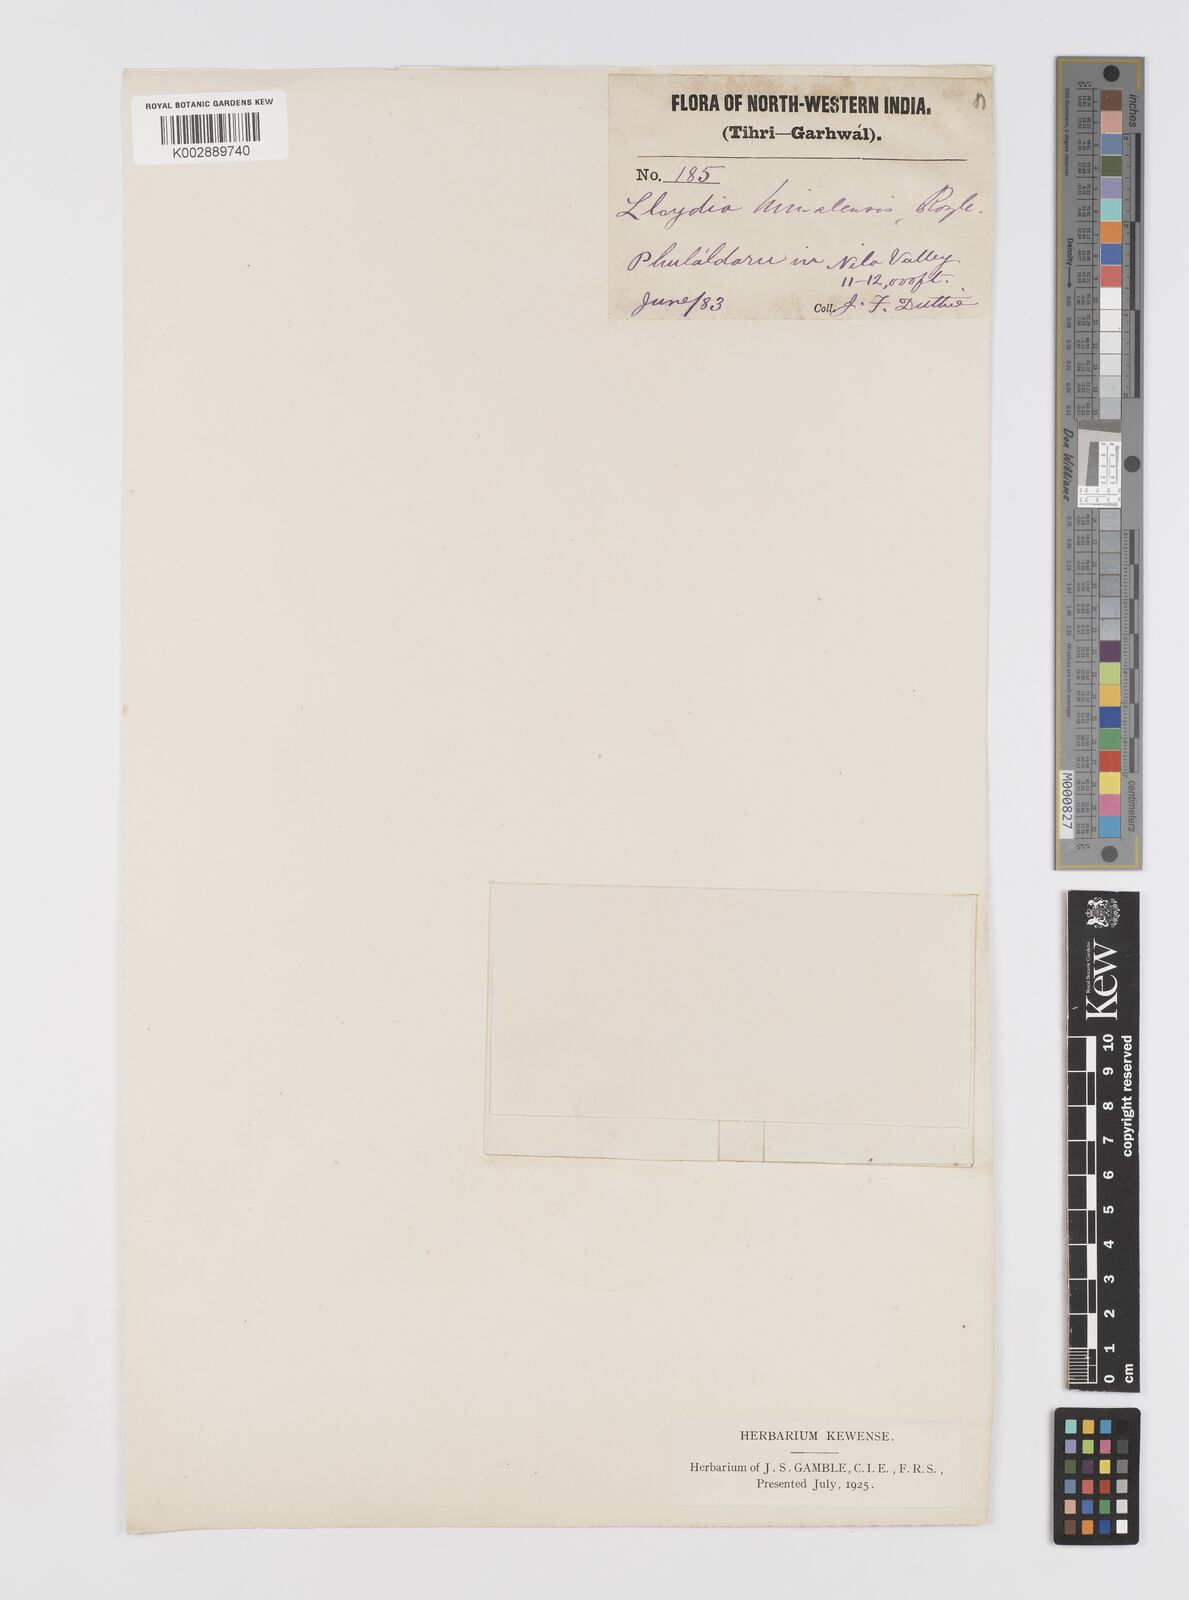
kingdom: Plantae
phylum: Tracheophyta
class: Liliopsida
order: Liliales
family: Liliaceae
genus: Gagea
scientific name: Gagea serotina
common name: Snowdon lily
